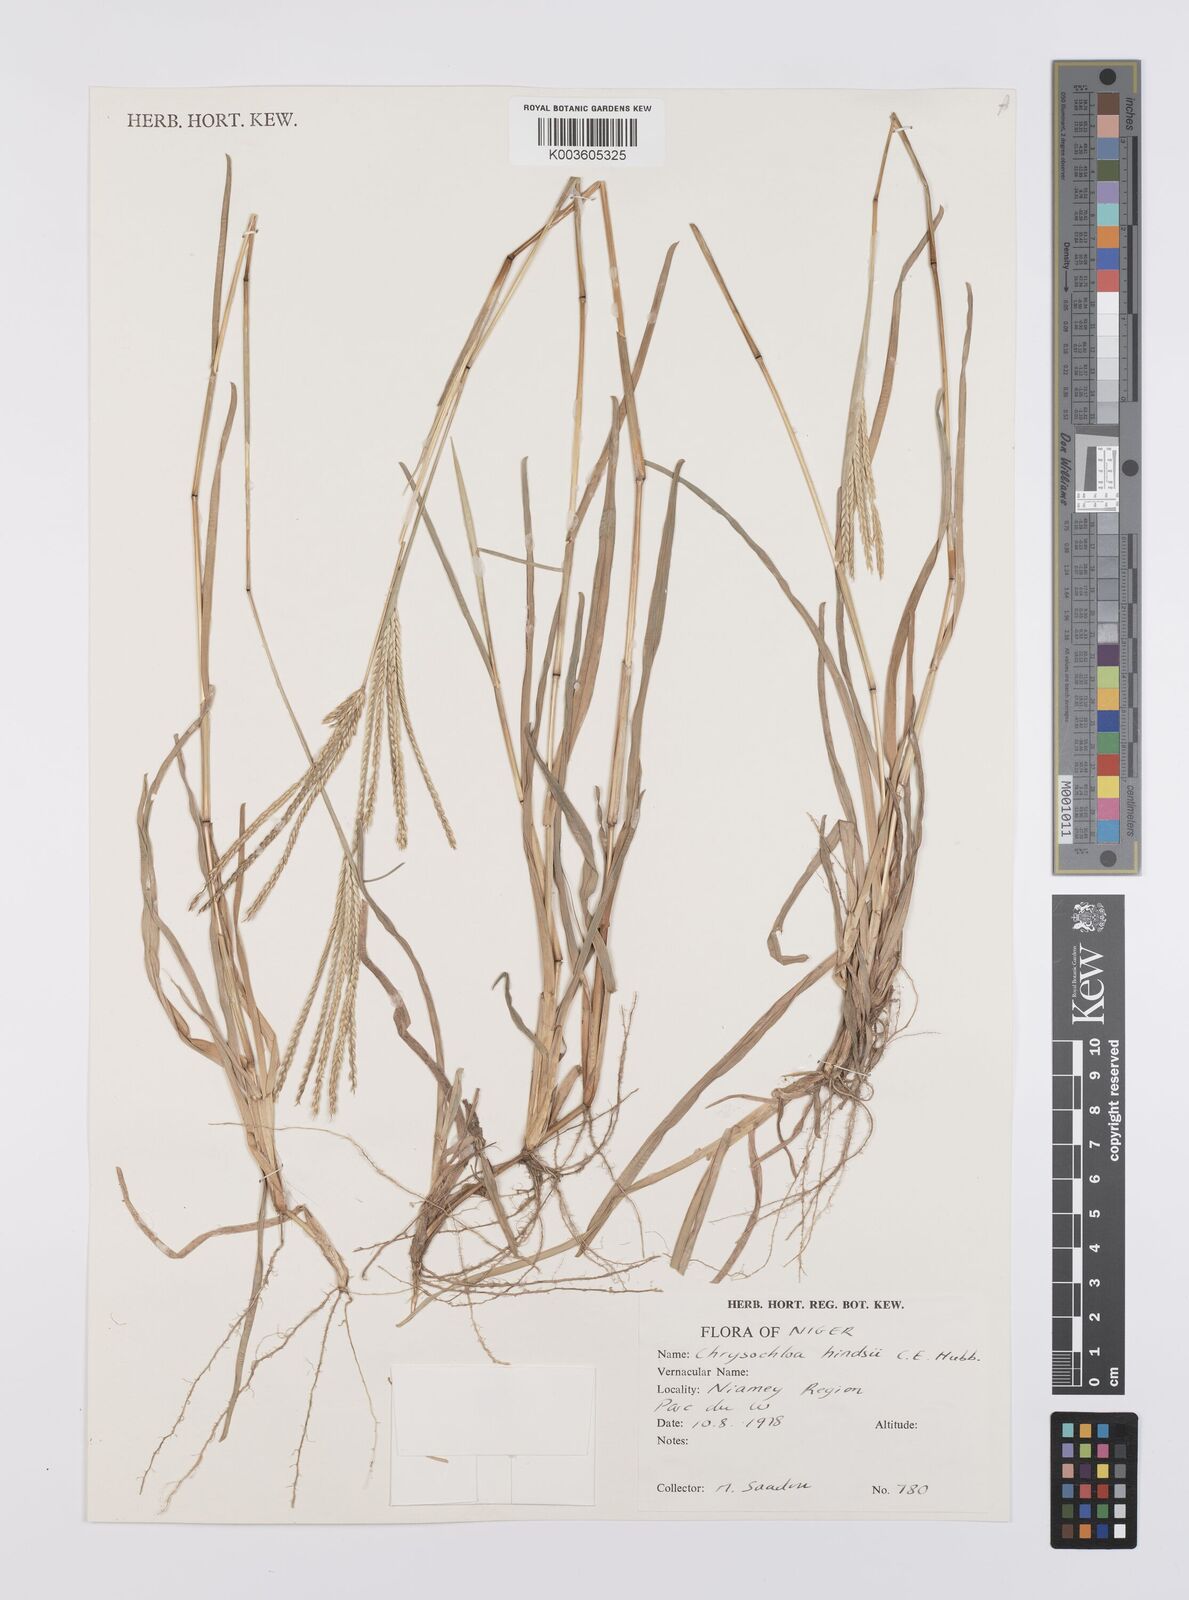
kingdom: Plantae
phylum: Tracheophyta
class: Liliopsida
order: Poales
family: Poaceae
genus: Chrysochloa
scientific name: Chrysochloa hindsii
